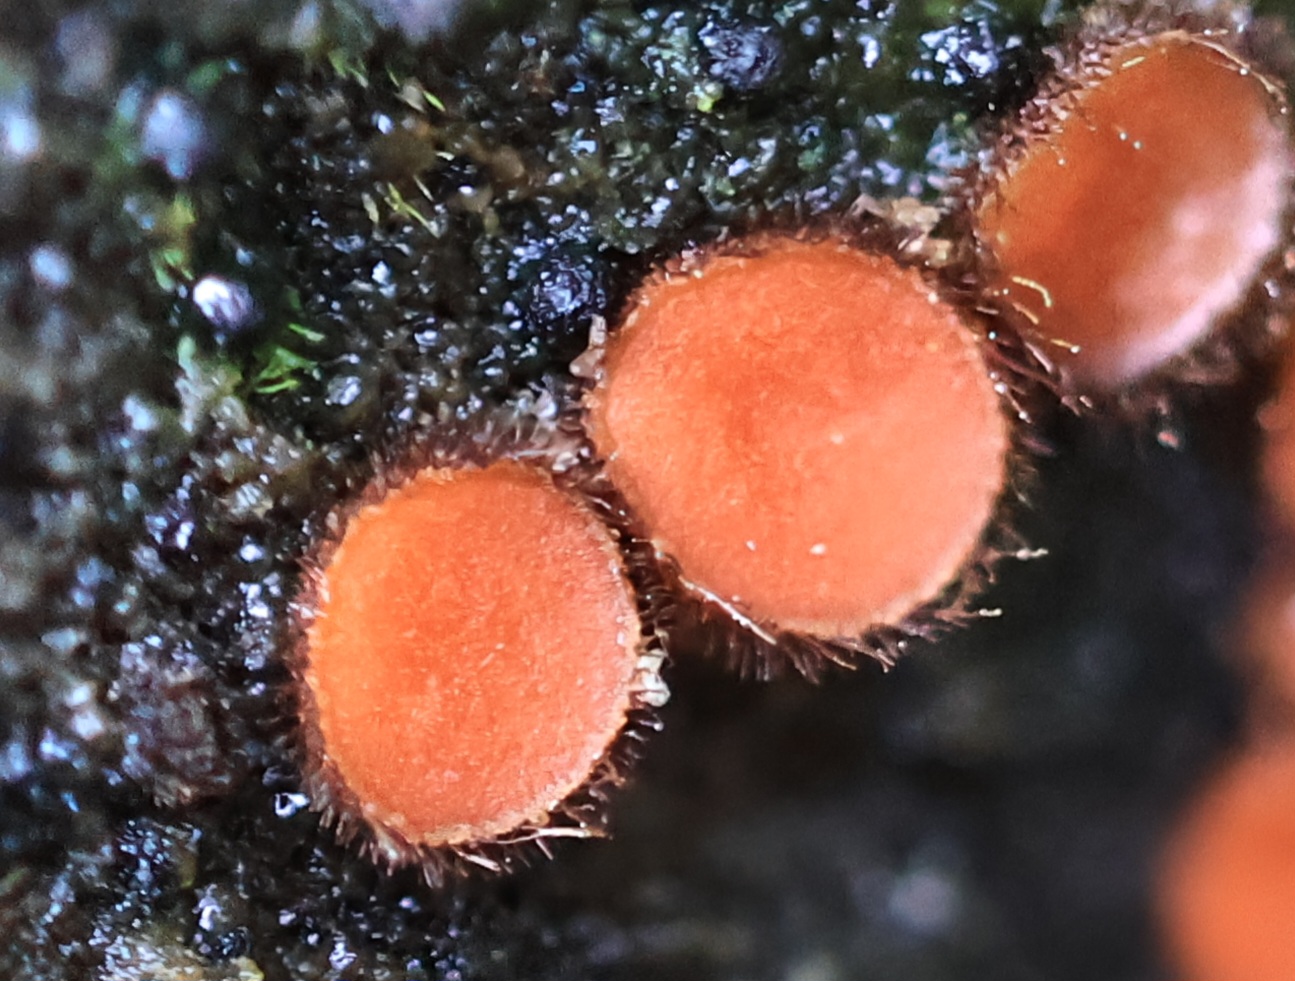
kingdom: Fungi
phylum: Ascomycota
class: Pezizomycetes
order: Pezizales
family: Pyronemataceae
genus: Scutellinia
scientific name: Scutellinia
